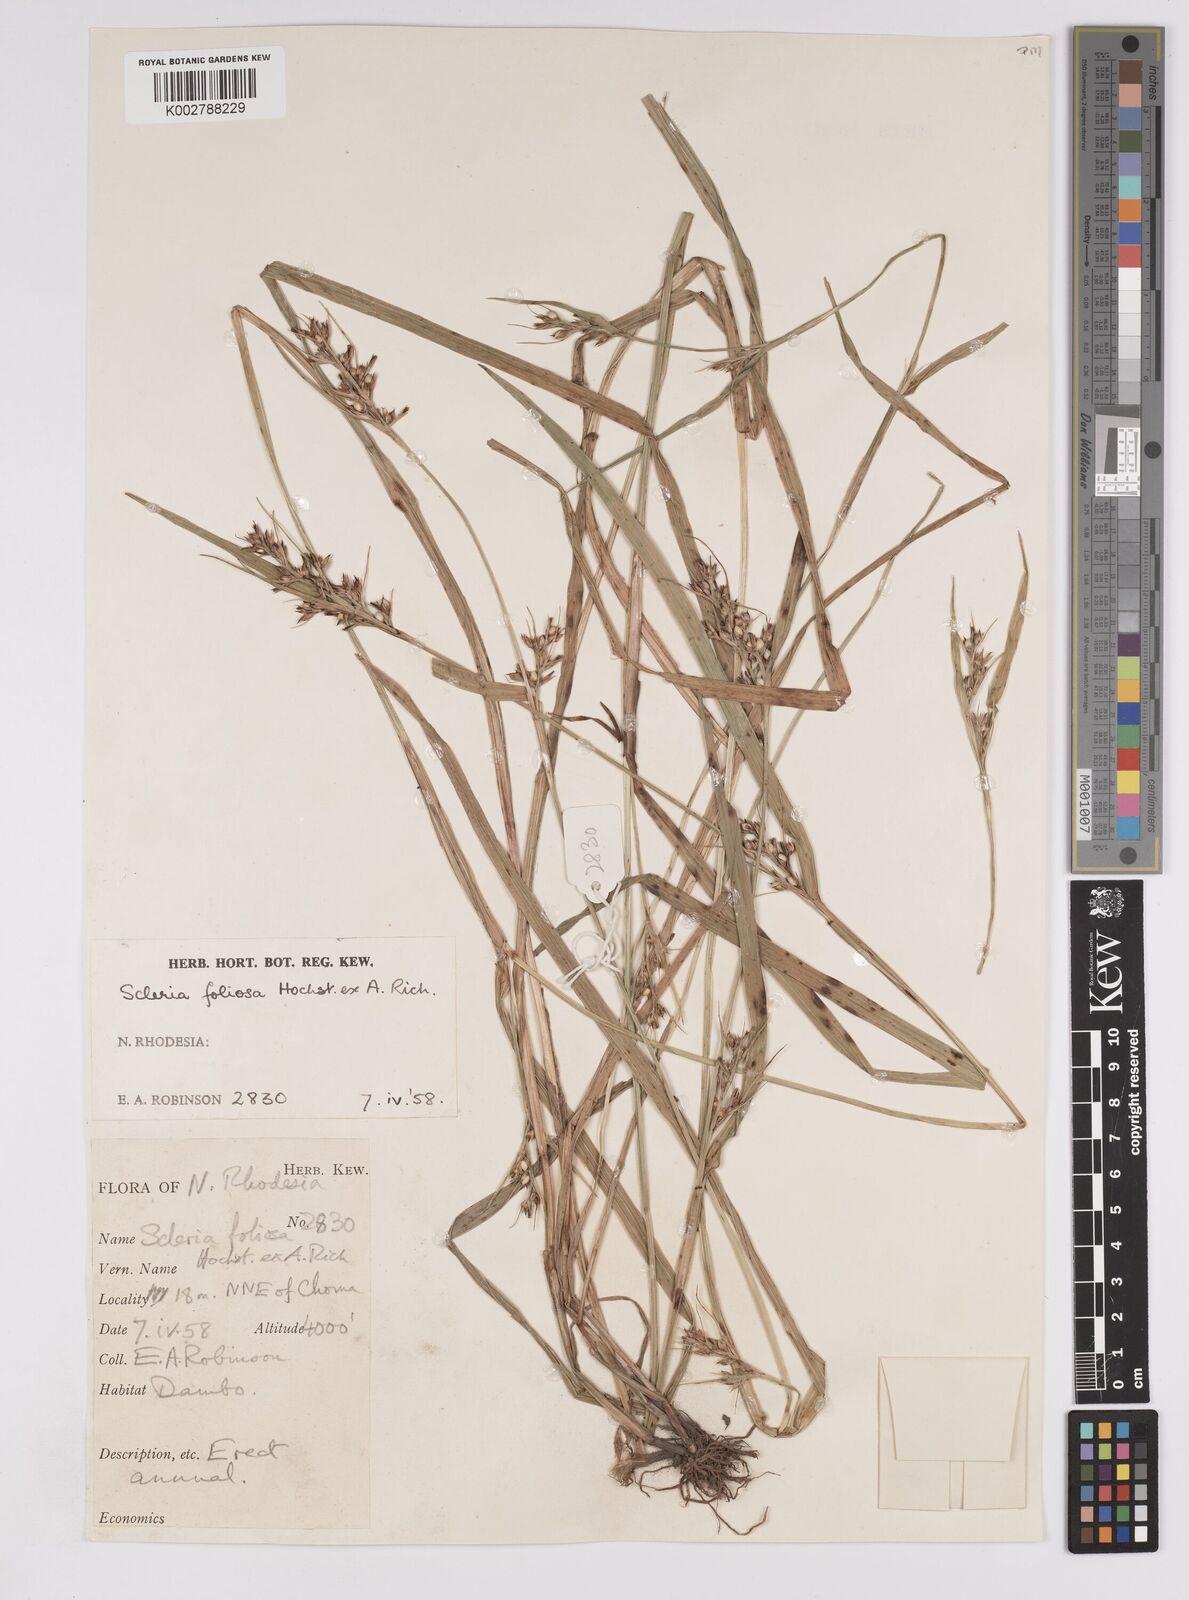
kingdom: Plantae
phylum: Tracheophyta
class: Liliopsida
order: Poales
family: Cyperaceae
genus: Scleria
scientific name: Scleria foliosa
